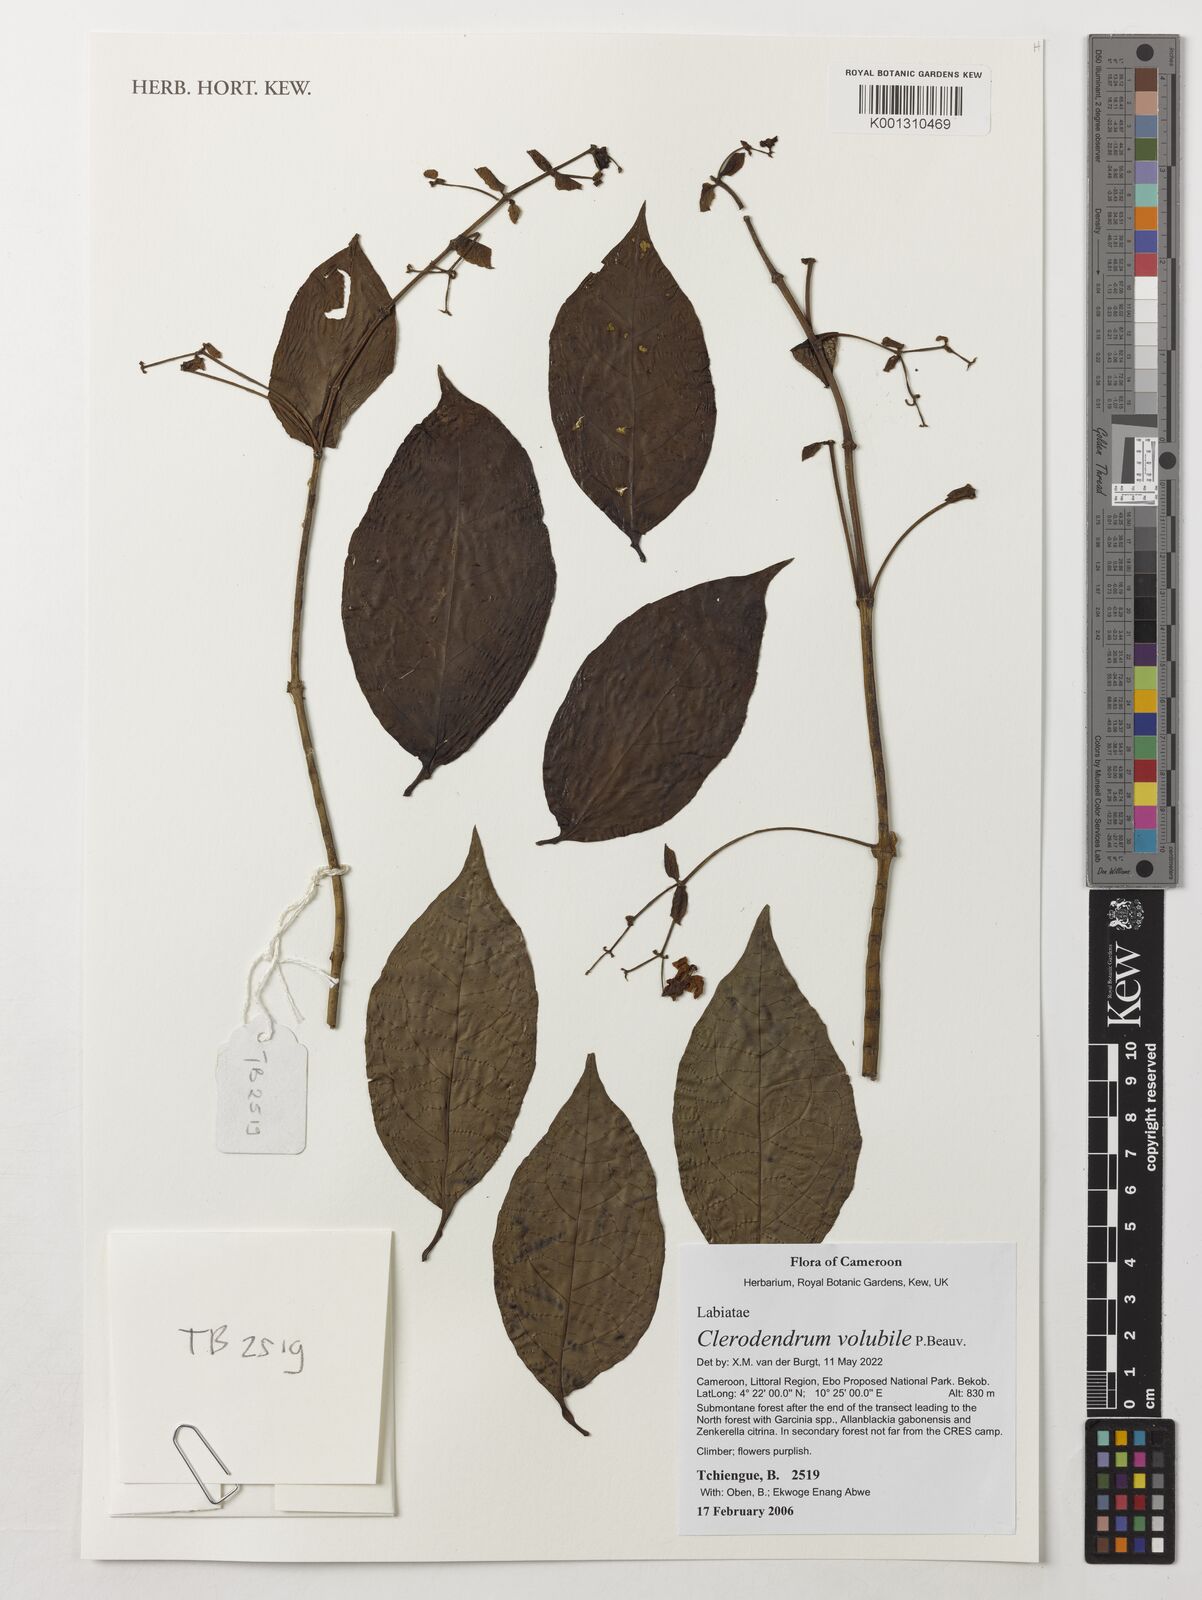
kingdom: Plantae
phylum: Tracheophyta
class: Magnoliopsida
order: Lamiales
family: Lamiaceae
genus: Clerodendrum
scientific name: Clerodendrum volubile
